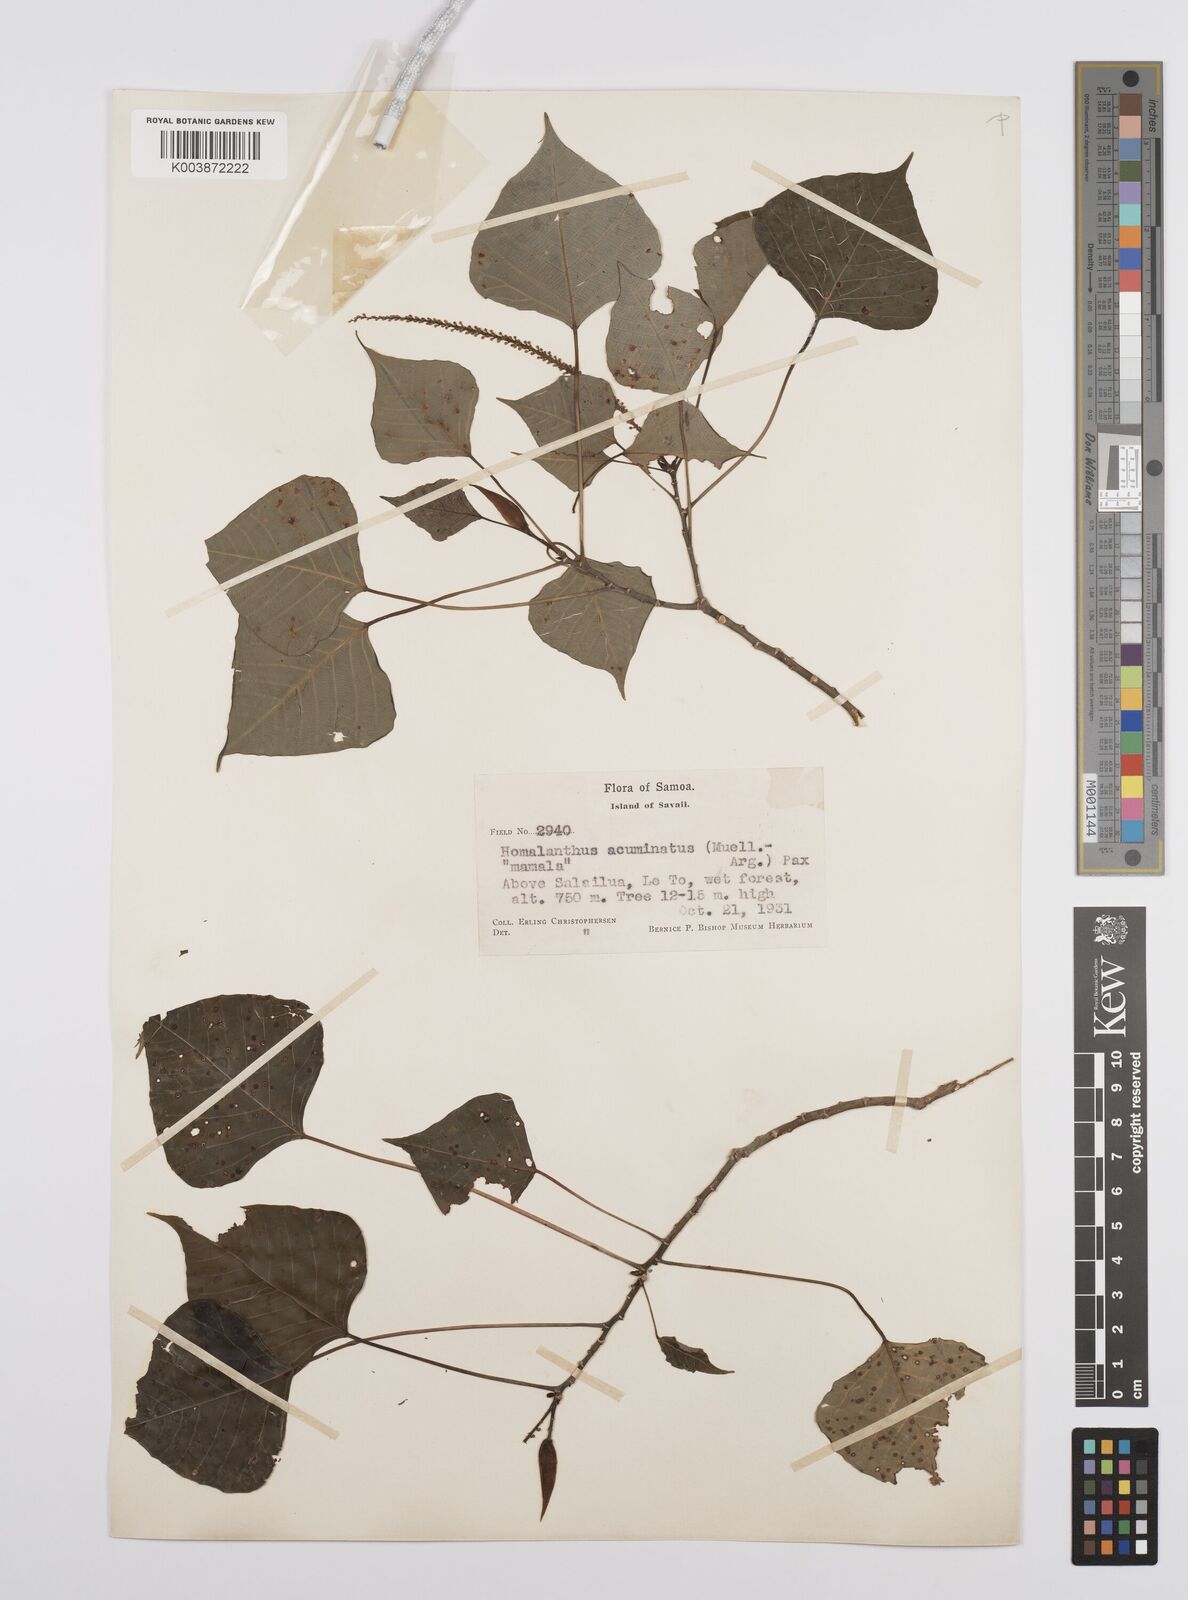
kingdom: Plantae
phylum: Tracheophyta
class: Magnoliopsida
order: Malpighiales
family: Euphorbiaceae
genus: Homalanthus
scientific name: Homalanthus acuminatus
